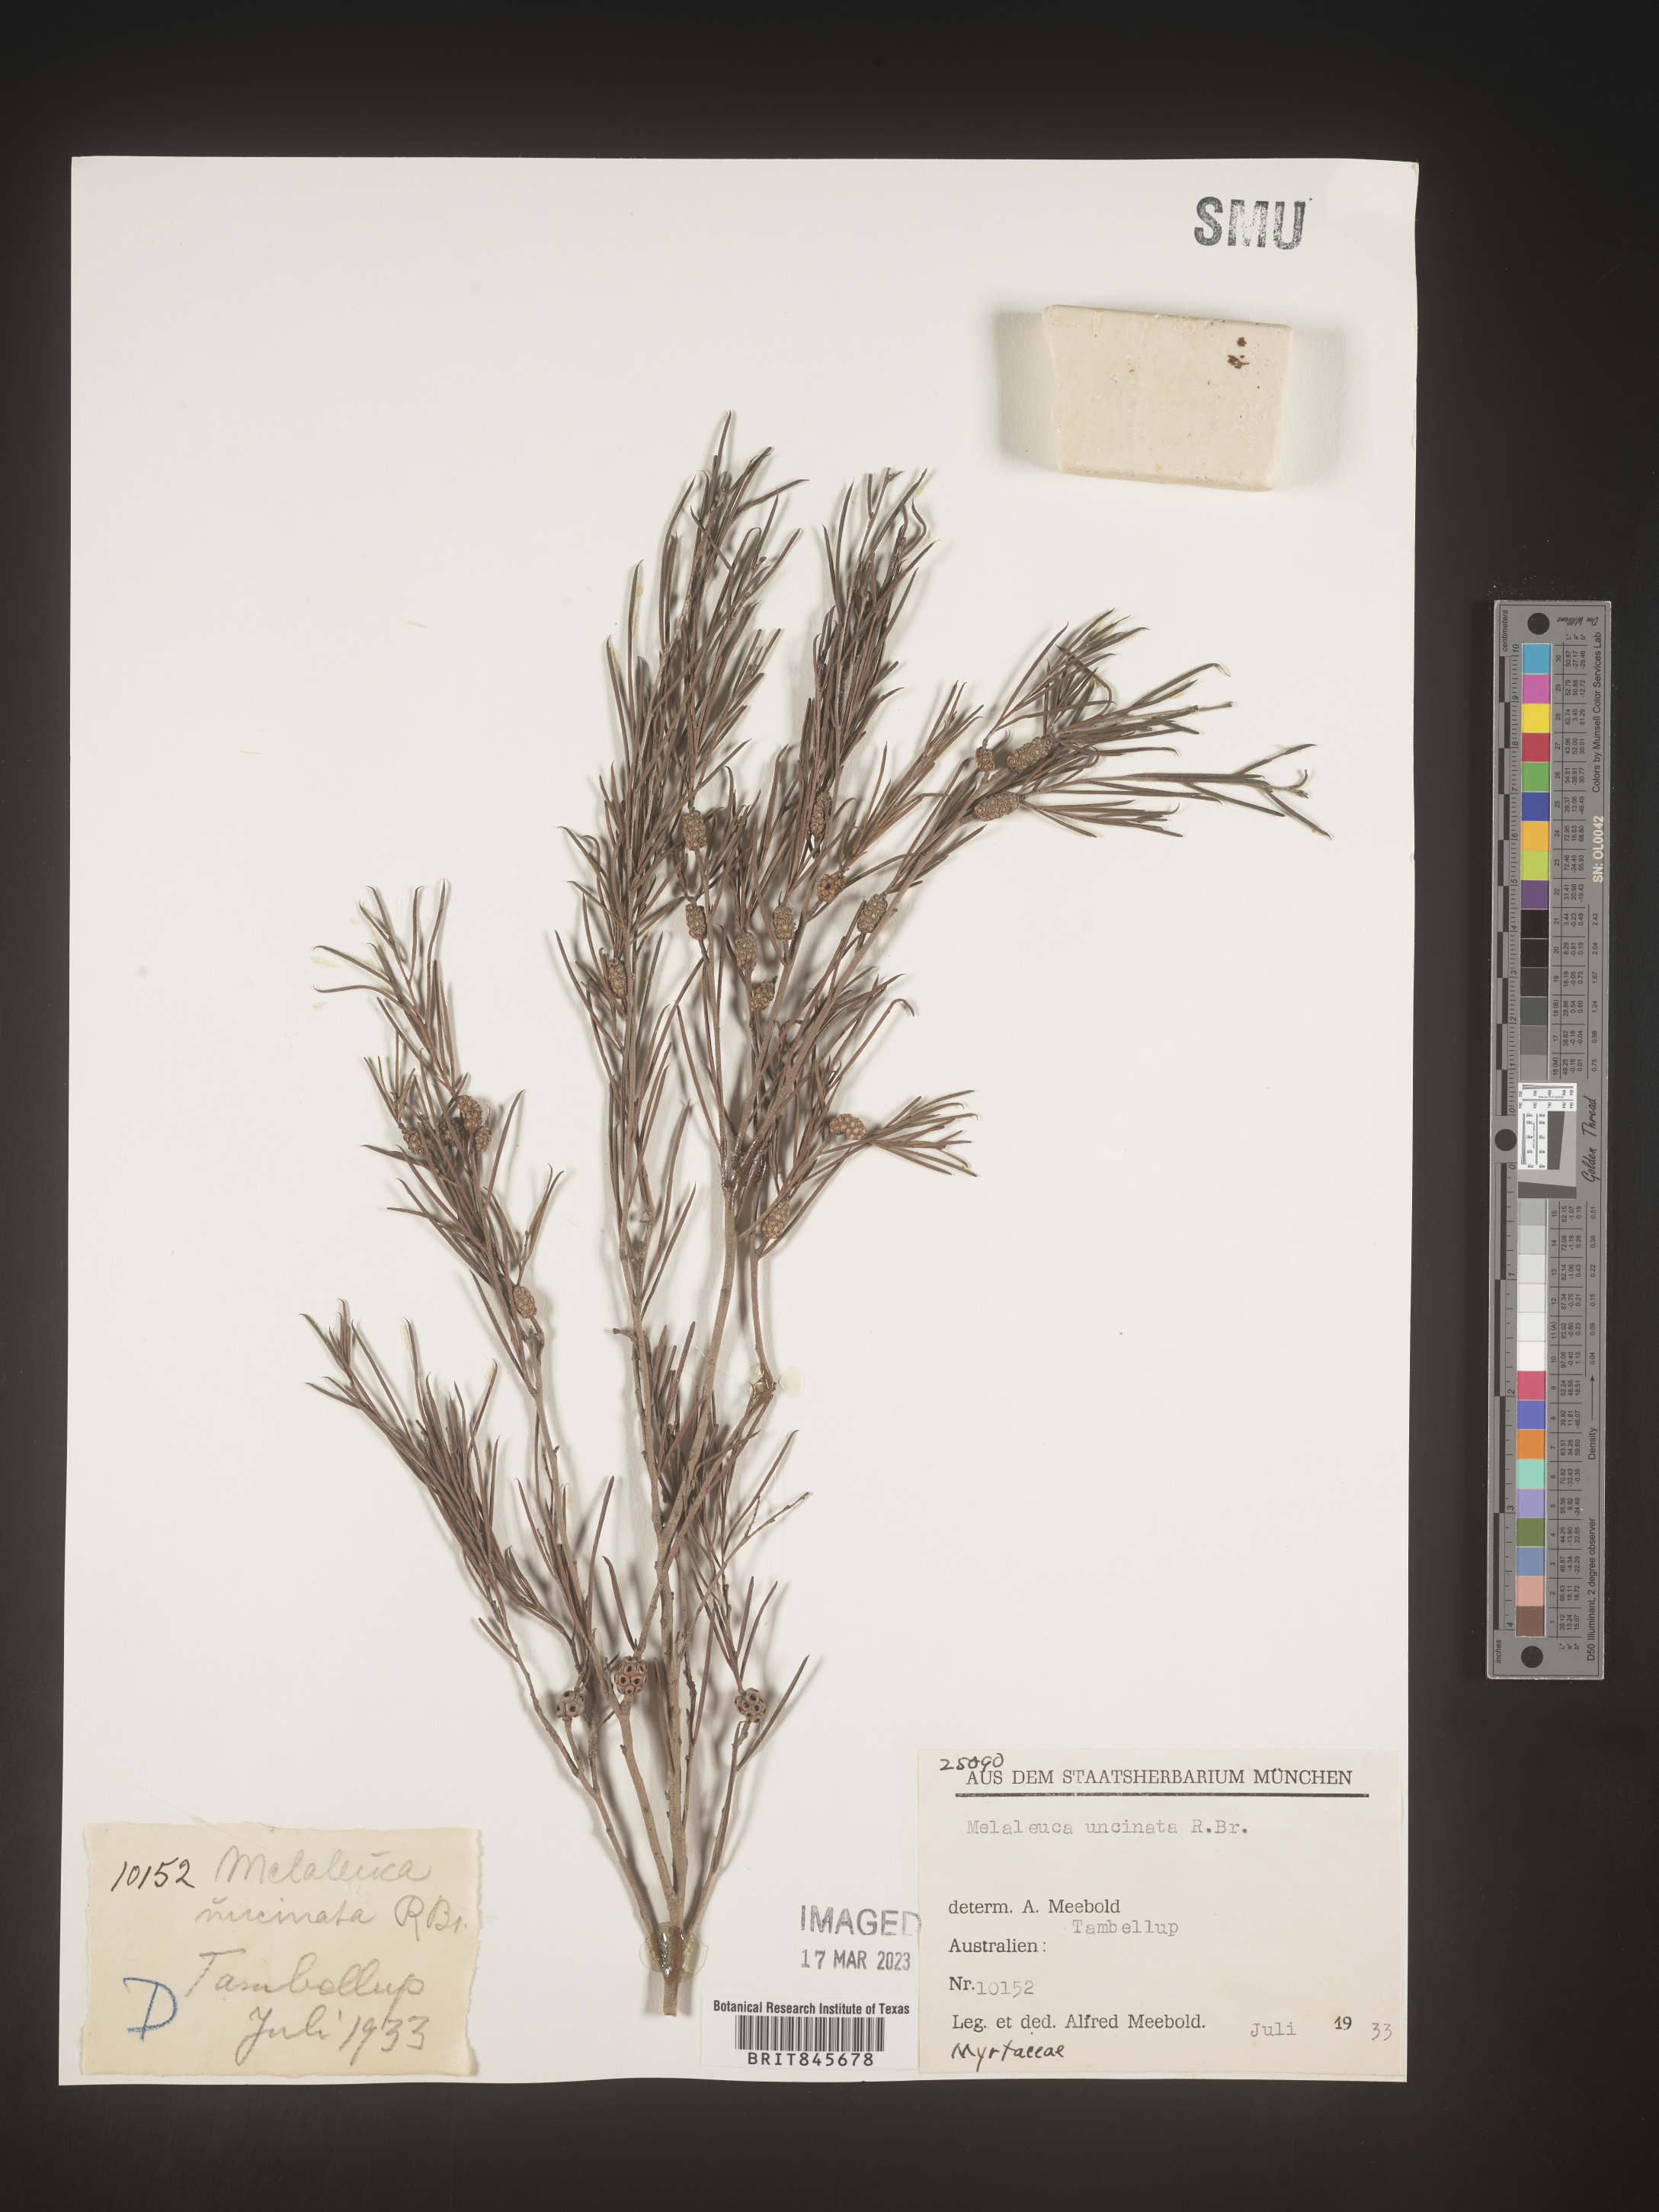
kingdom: Plantae
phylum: Tracheophyta
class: Magnoliopsida
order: Myrtales
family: Myrtaceae
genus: Melaleuca
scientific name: Melaleuca
